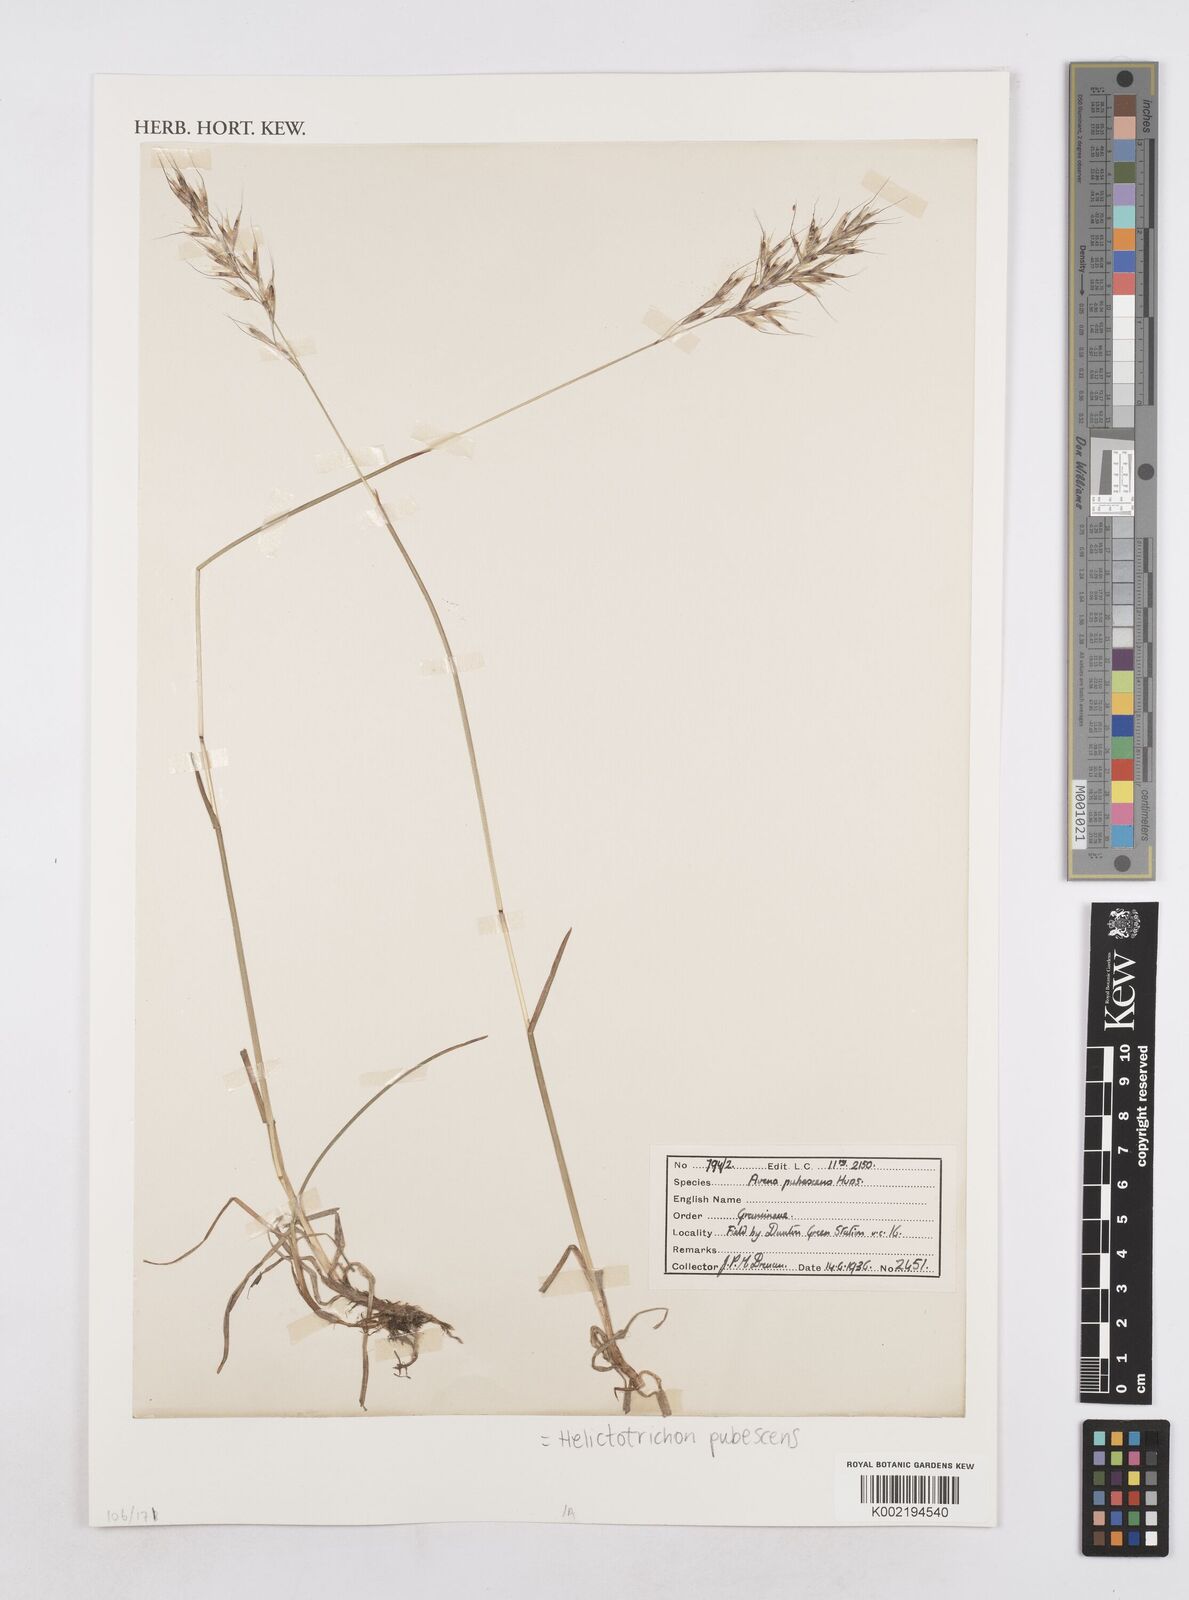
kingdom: Plantae
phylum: Tracheophyta
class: Liliopsida
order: Poales
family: Poaceae
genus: Avenula
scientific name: Avenula pubescens
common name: Downy alpine oatgrass
